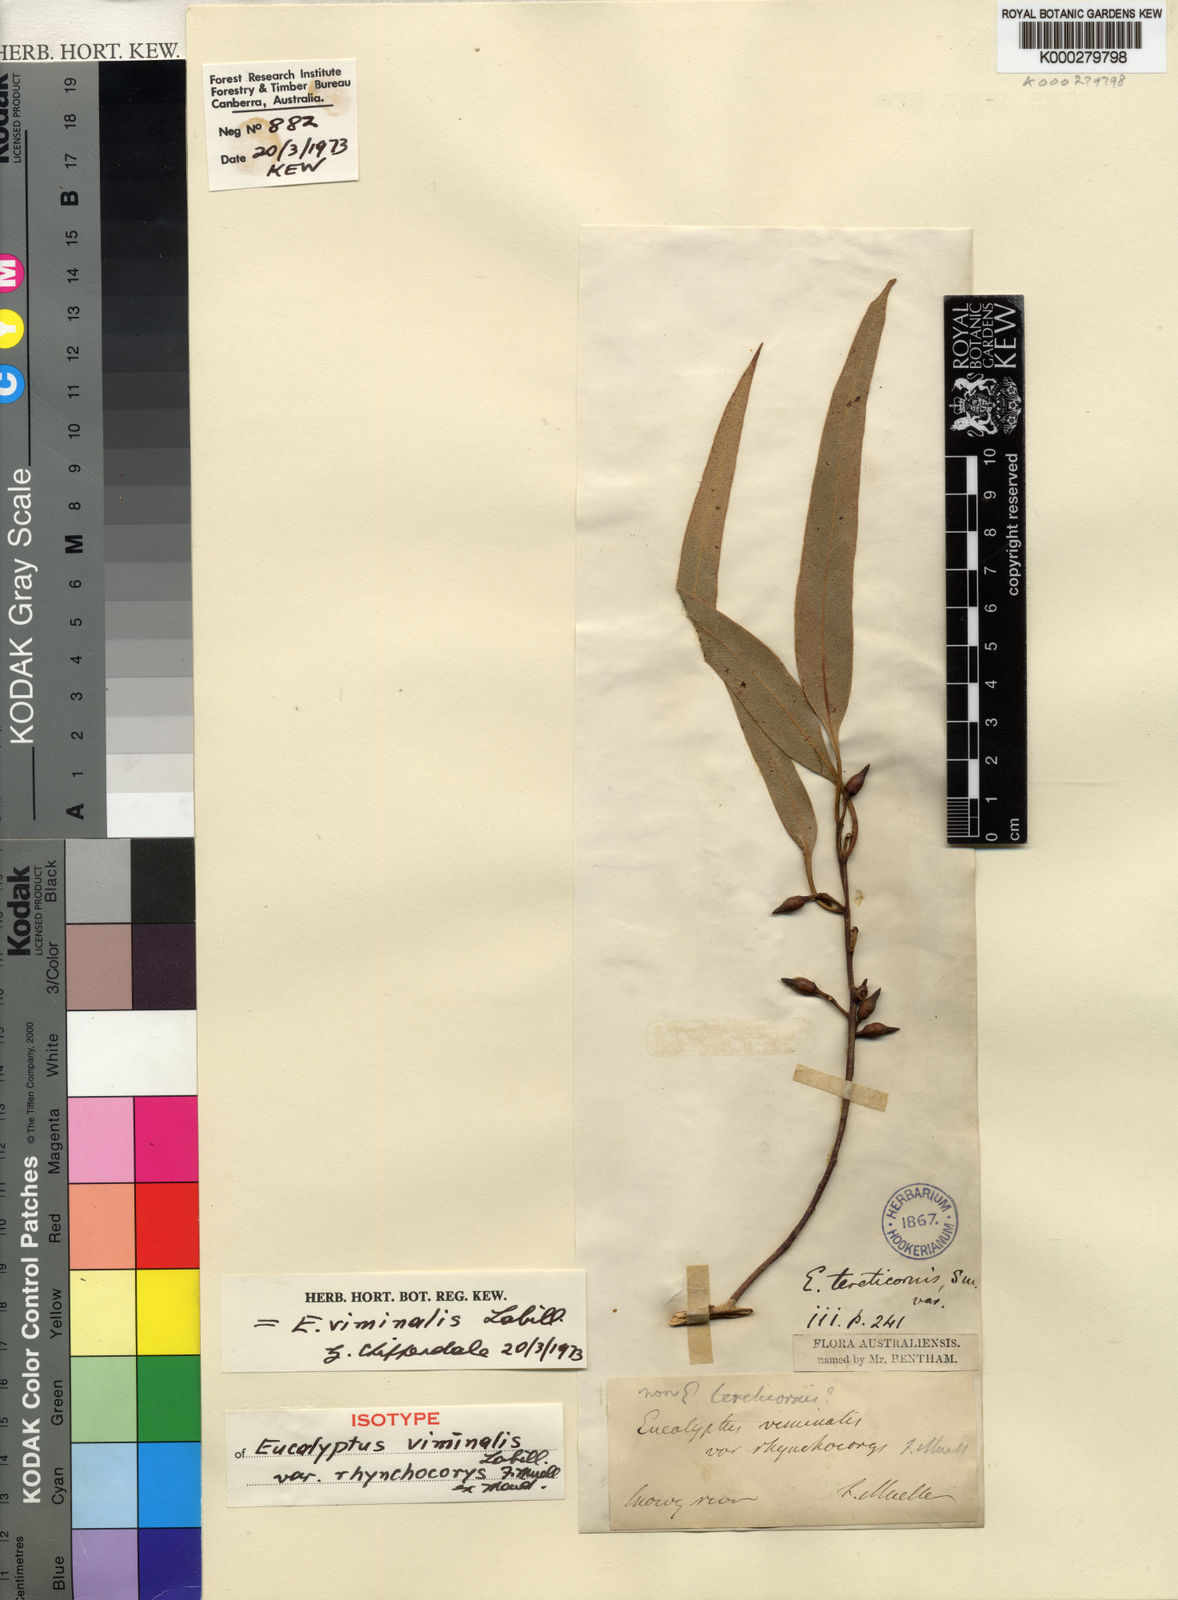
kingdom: Plantae
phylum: Tracheophyta
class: Magnoliopsida
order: Myrtales
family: Myrtaceae
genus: Eucalyptus
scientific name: Eucalyptus viminalis
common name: Manna gum
